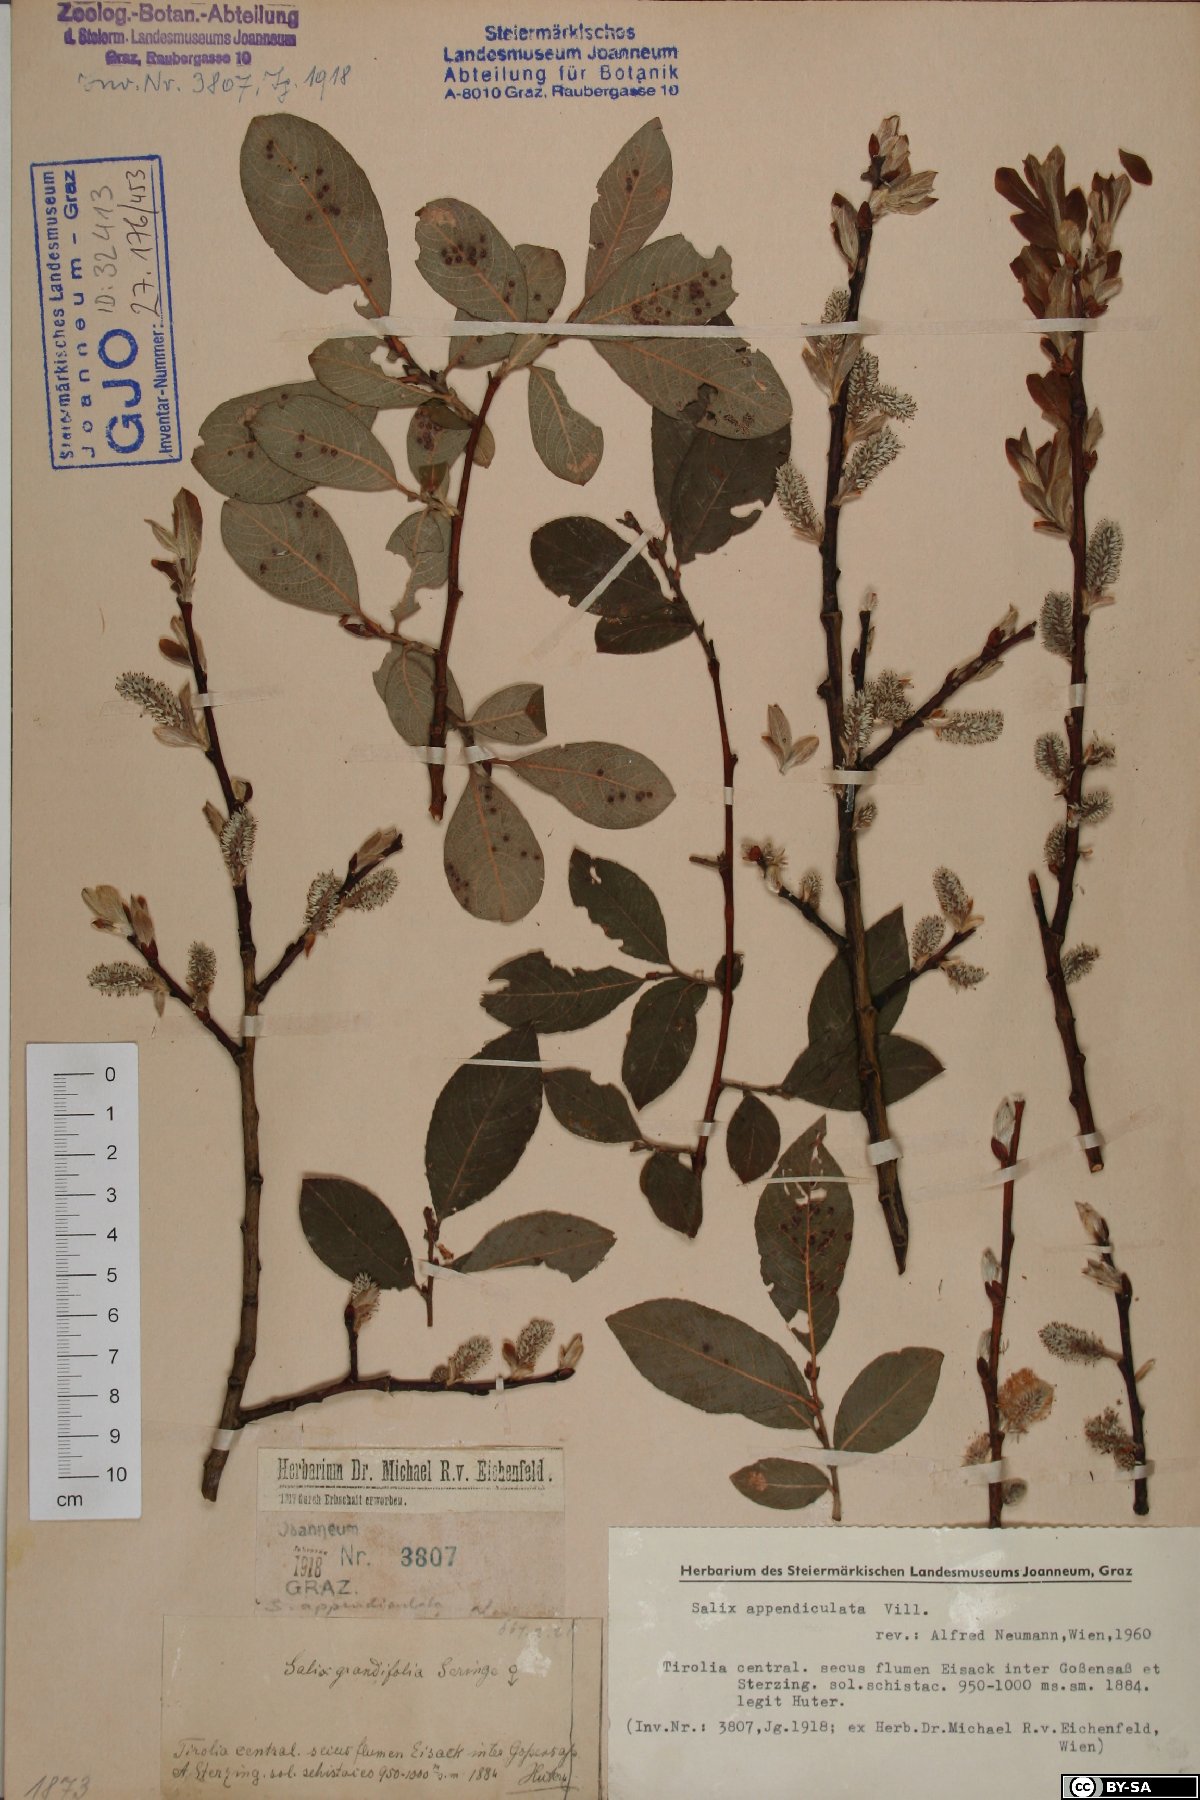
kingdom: Plantae
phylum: Tracheophyta
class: Magnoliopsida
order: Malpighiales
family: Salicaceae
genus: Salix
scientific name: Salix appendiculata
